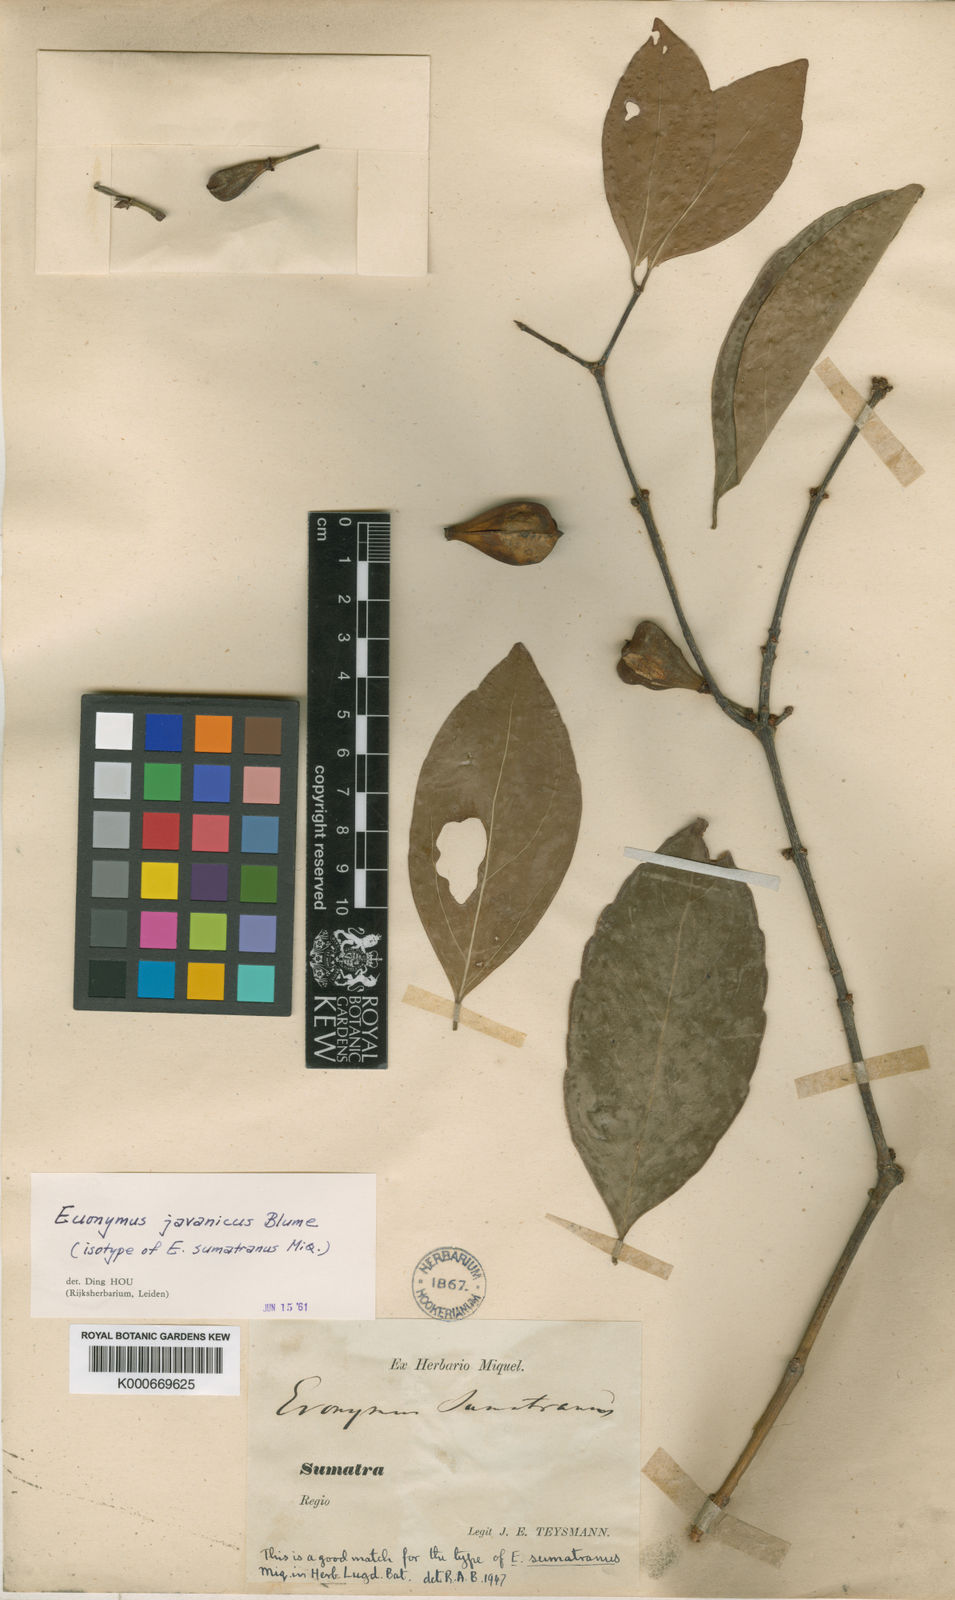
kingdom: Plantae
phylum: Tracheophyta
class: Magnoliopsida
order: Celastrales
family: Celastraceae
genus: Euonymus
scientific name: Euonymus indicus
